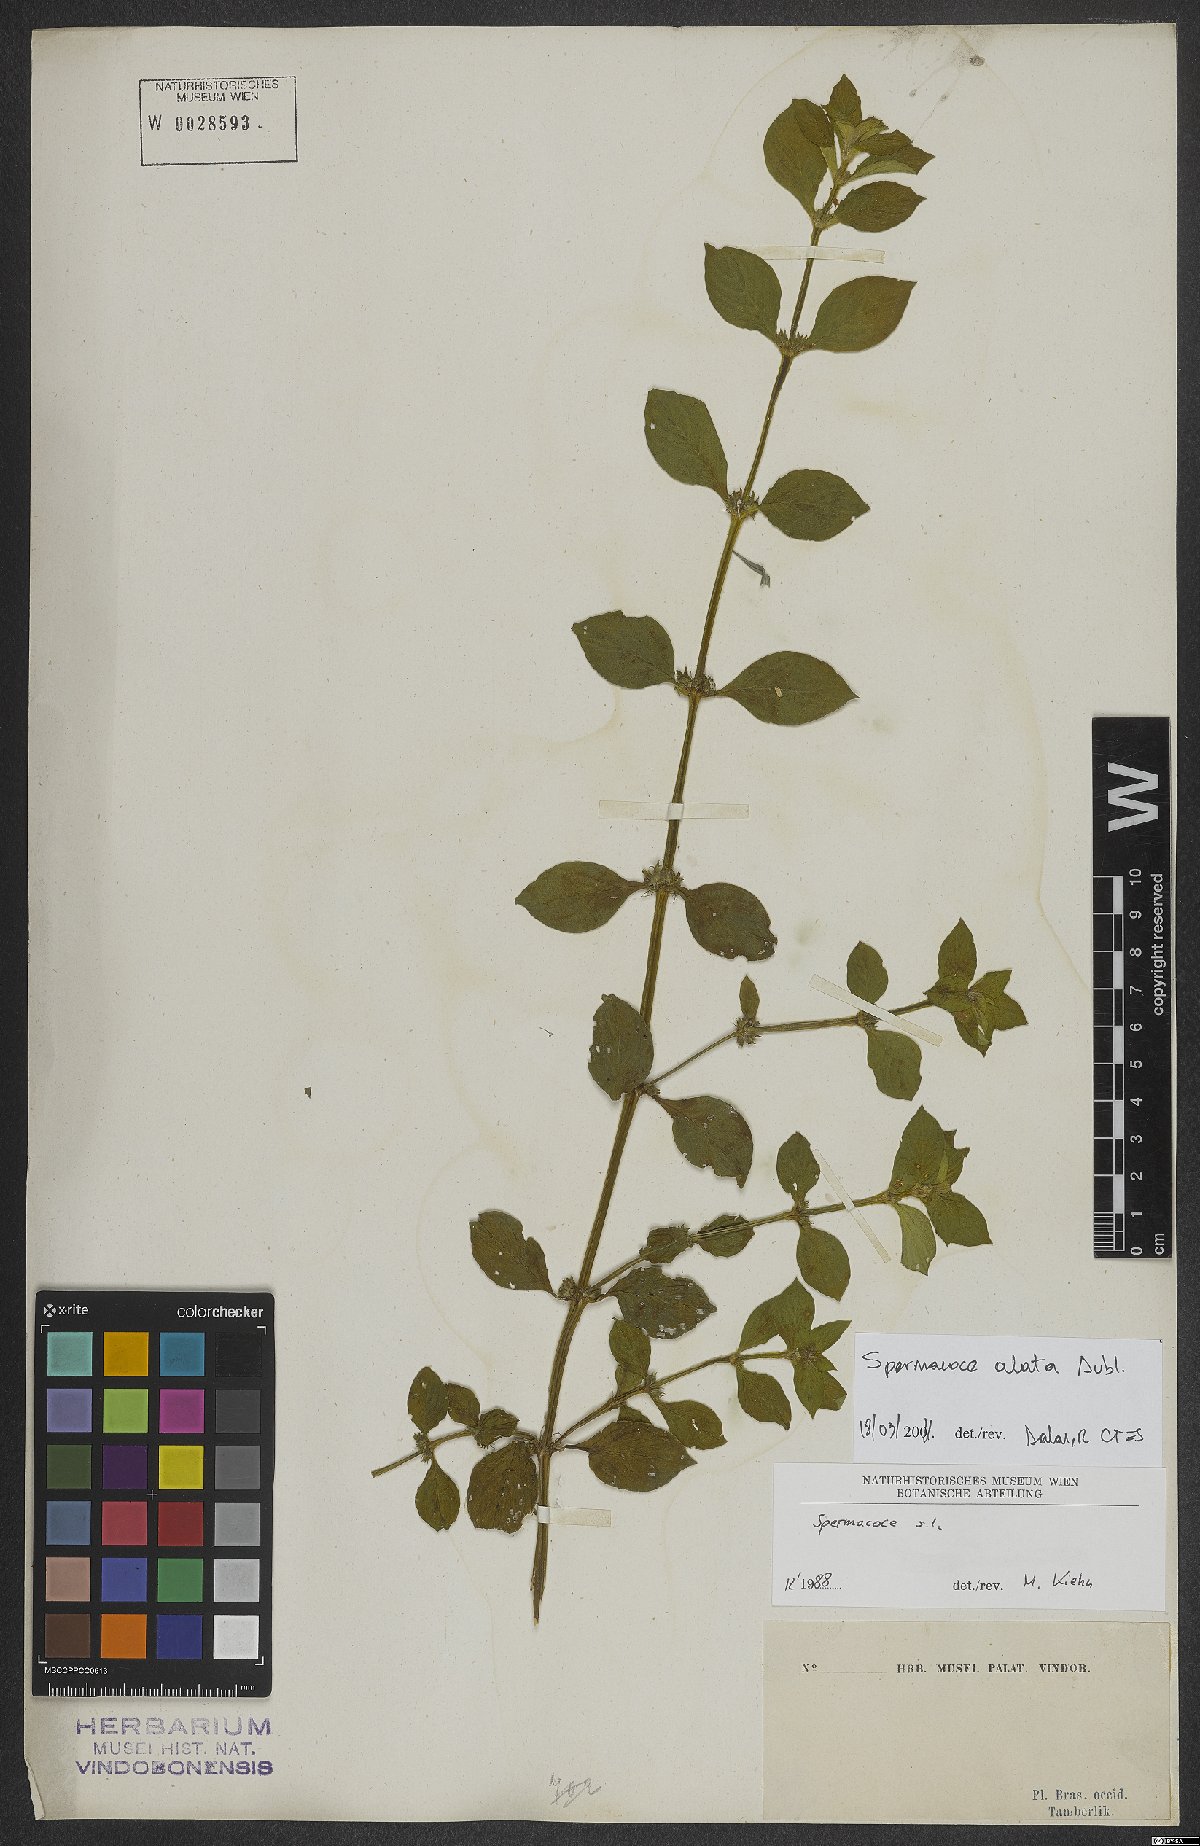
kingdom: Plantae
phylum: Tracheophyta
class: Magnoliopsida
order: Gentianales
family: Rubiaceae
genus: Spermacoce
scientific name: Spermacoce alata
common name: Winged false buttonweed
